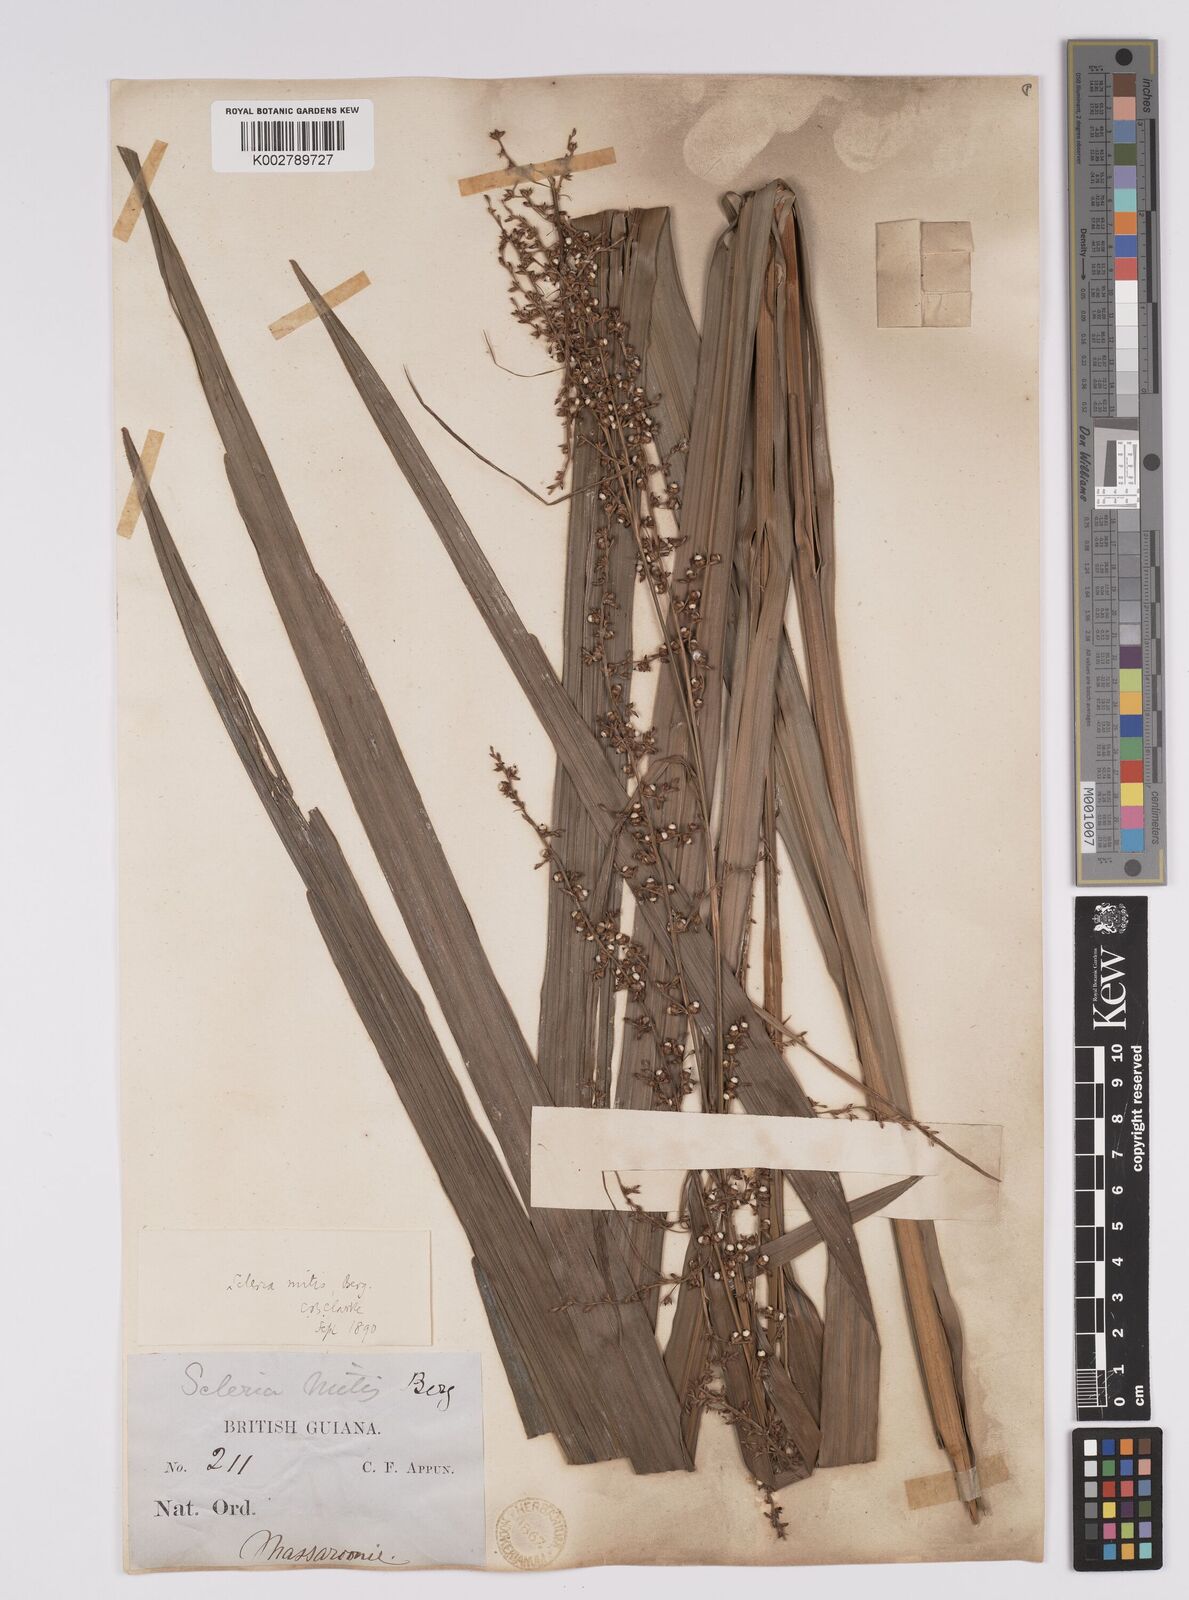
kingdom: Plantae
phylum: Tracheophyta
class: Liliopsida
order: Poales
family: Cyperaceae
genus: Scleria
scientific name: Scleria mitis
